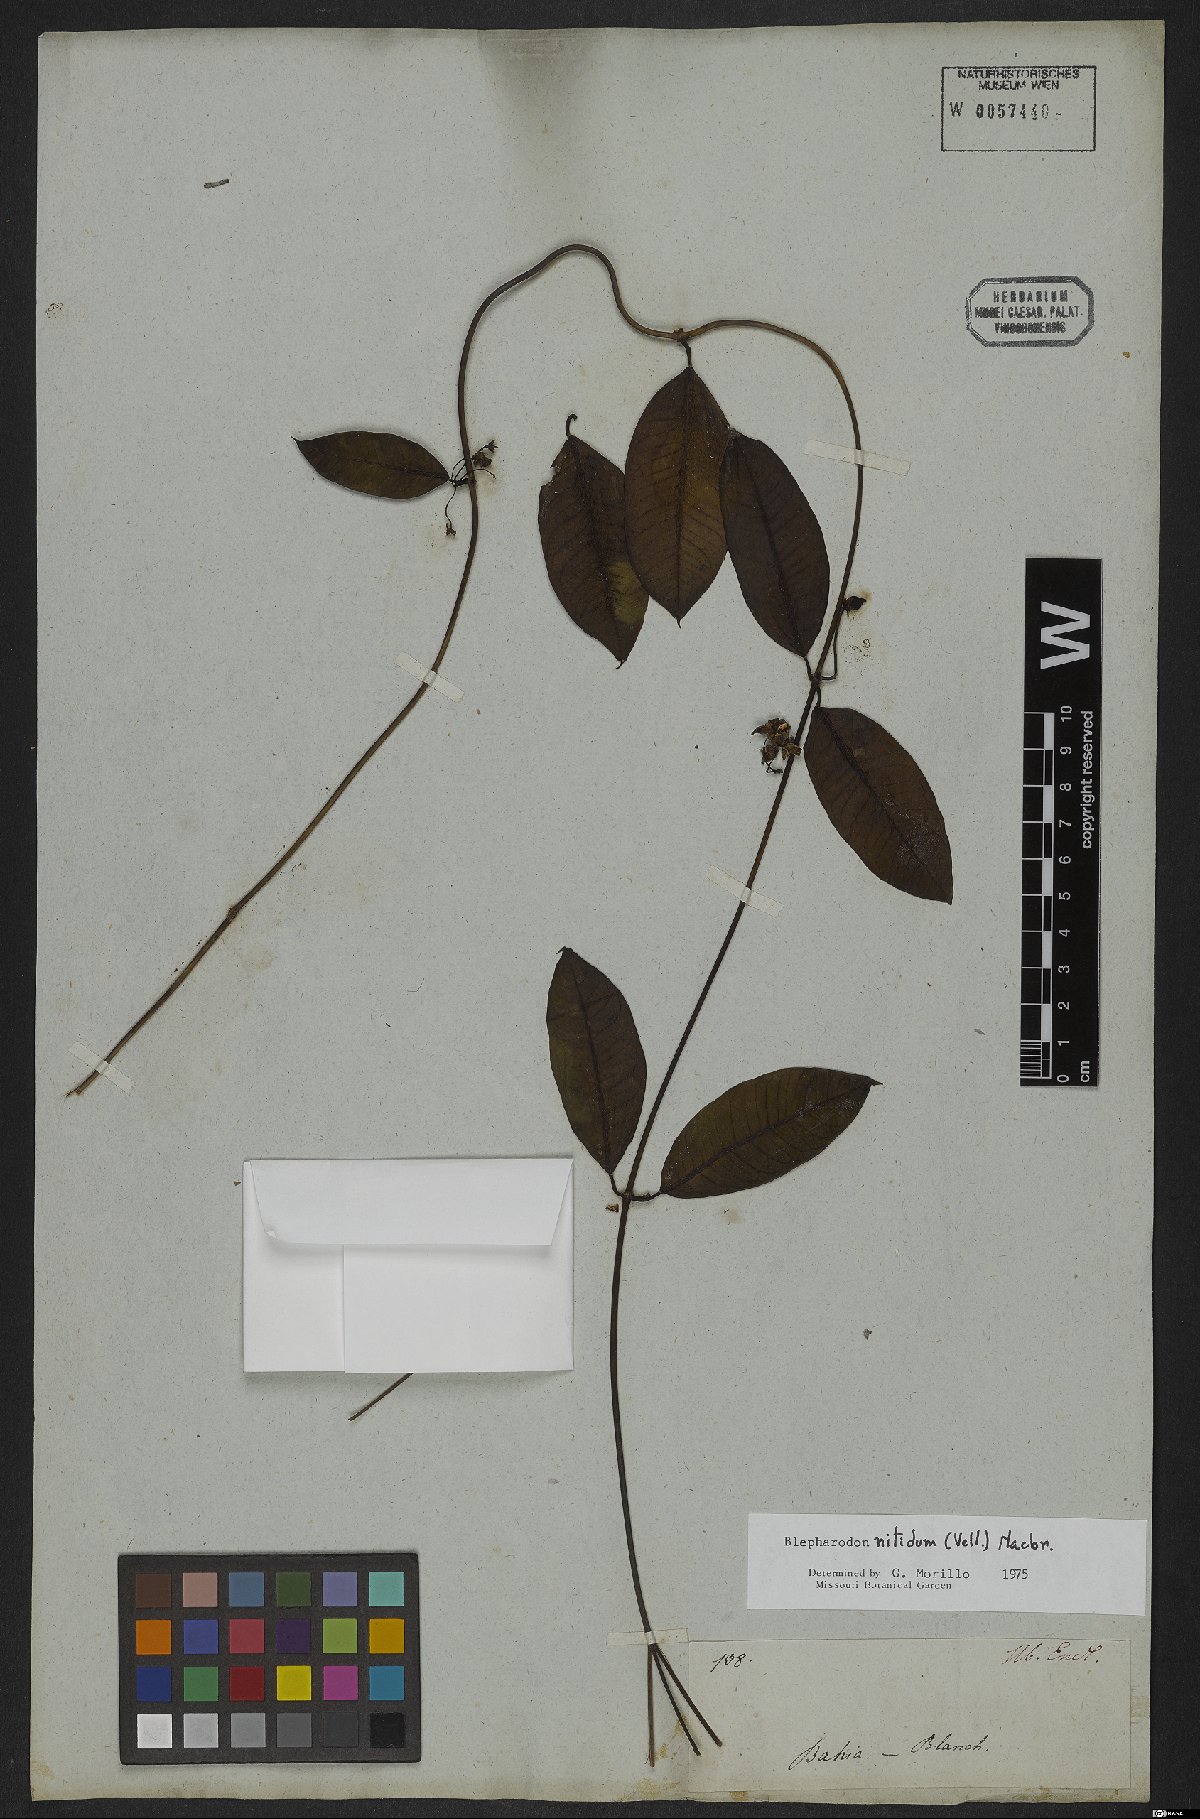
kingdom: Plantae
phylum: Tracheophyta
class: Magnoliopsida
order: Gentianales
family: Apocynaceae
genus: Blepharodon
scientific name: Blepharodon pictum
